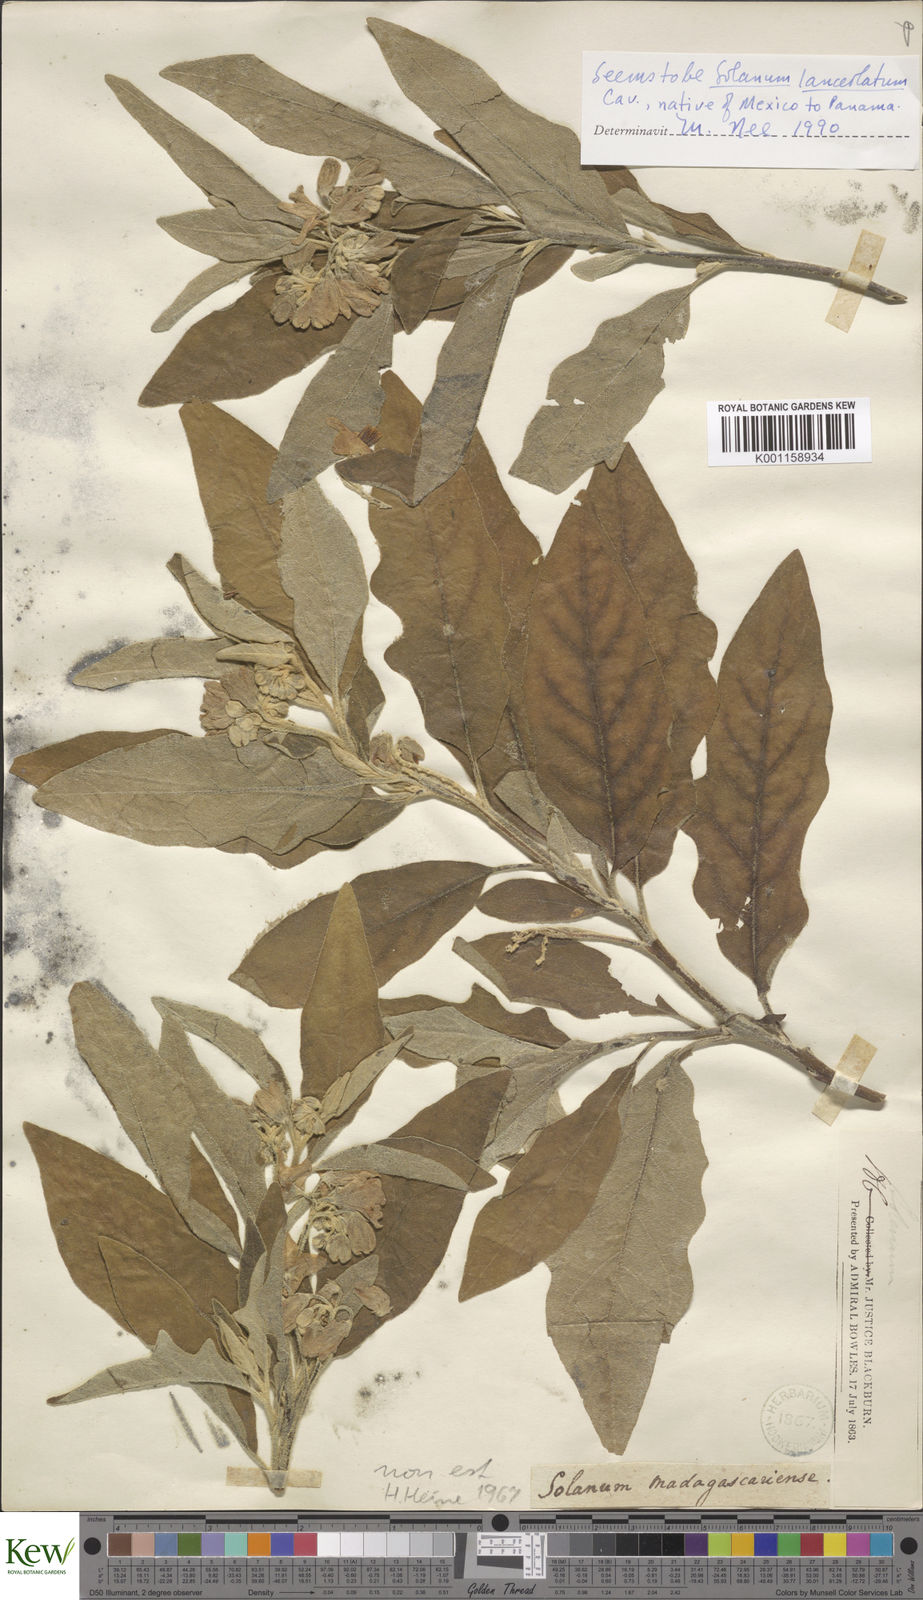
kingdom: Plantae
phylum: Tracheophyta
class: Magnoliopsida
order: Solanales
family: Solanaceae
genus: Solanum
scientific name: Solanum lanceolatum
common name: Orangeberry nightshade
